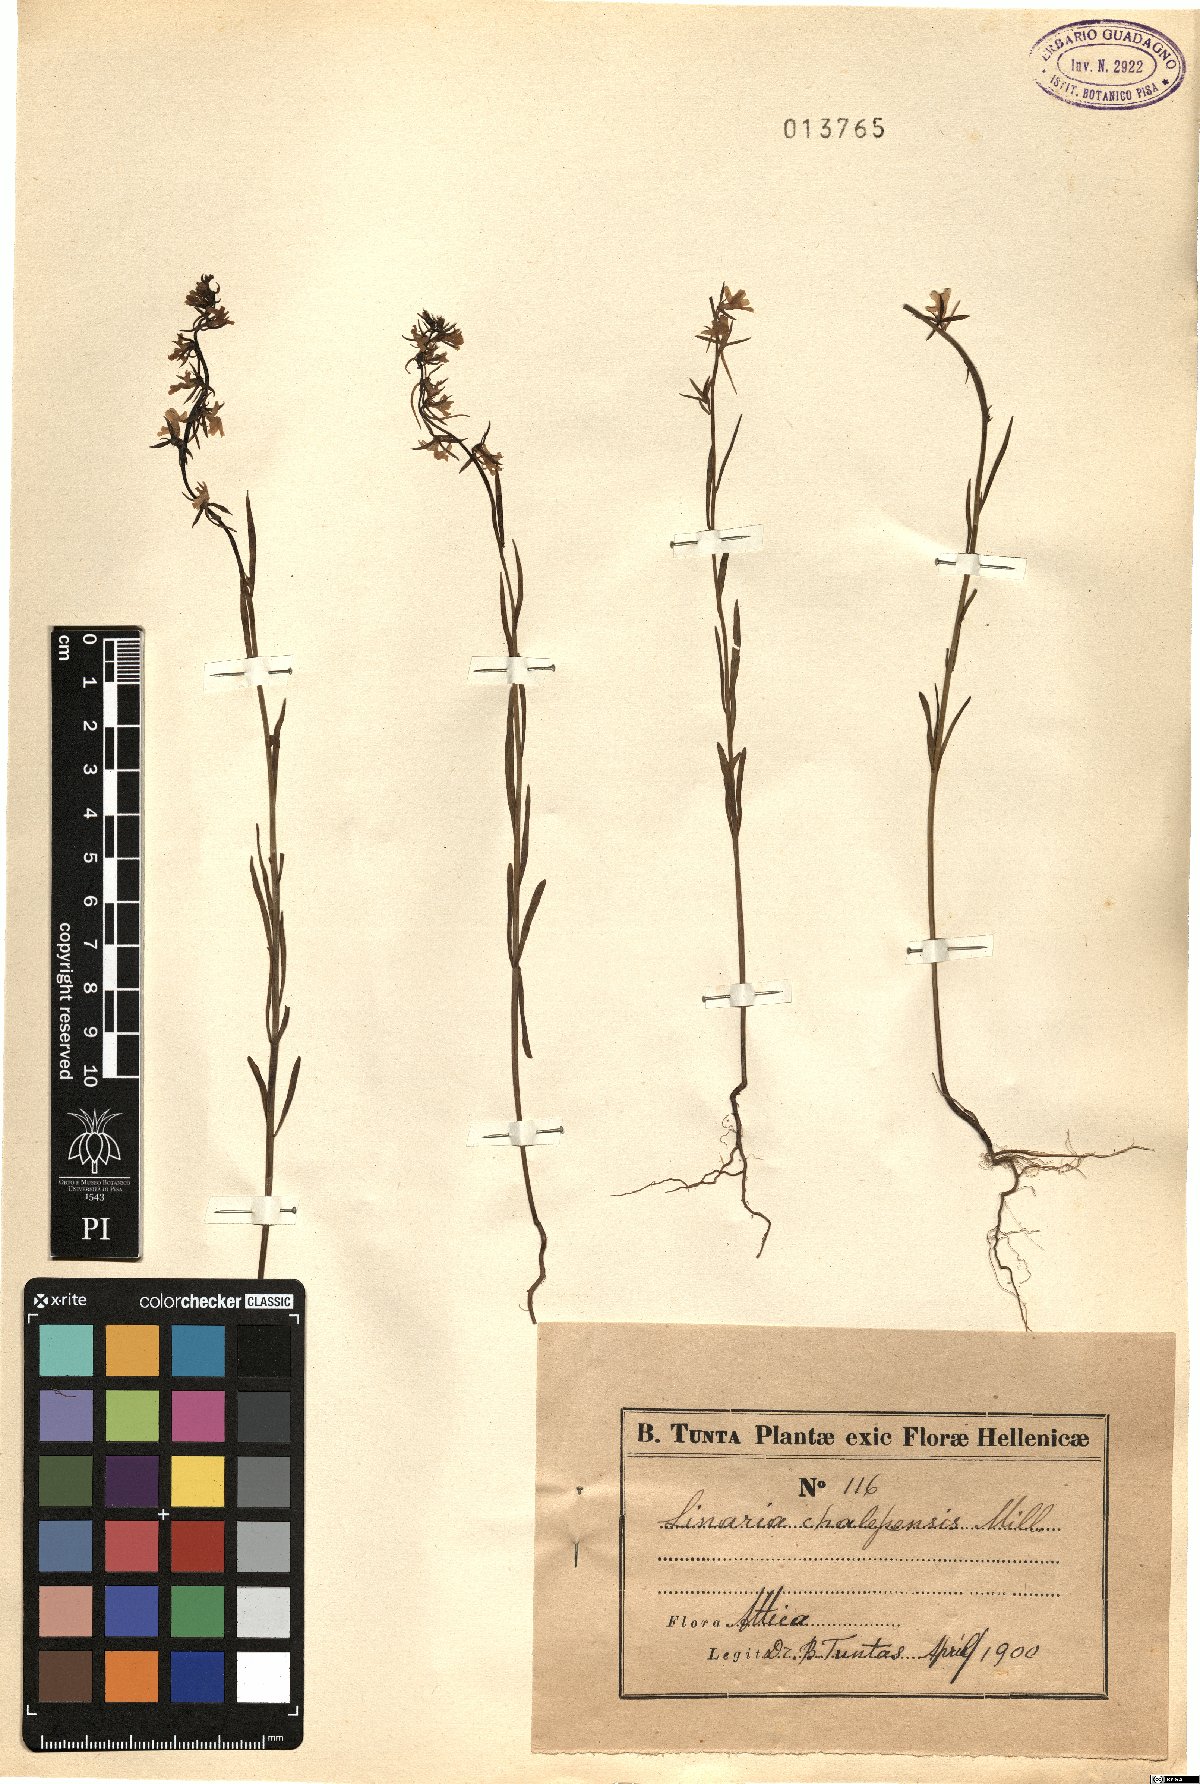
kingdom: Plantae
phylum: Tracheophyta
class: Magnoliopsida
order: Lamiales
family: Plantaginaceae
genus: Linaria
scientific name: Linaria chalepensis
